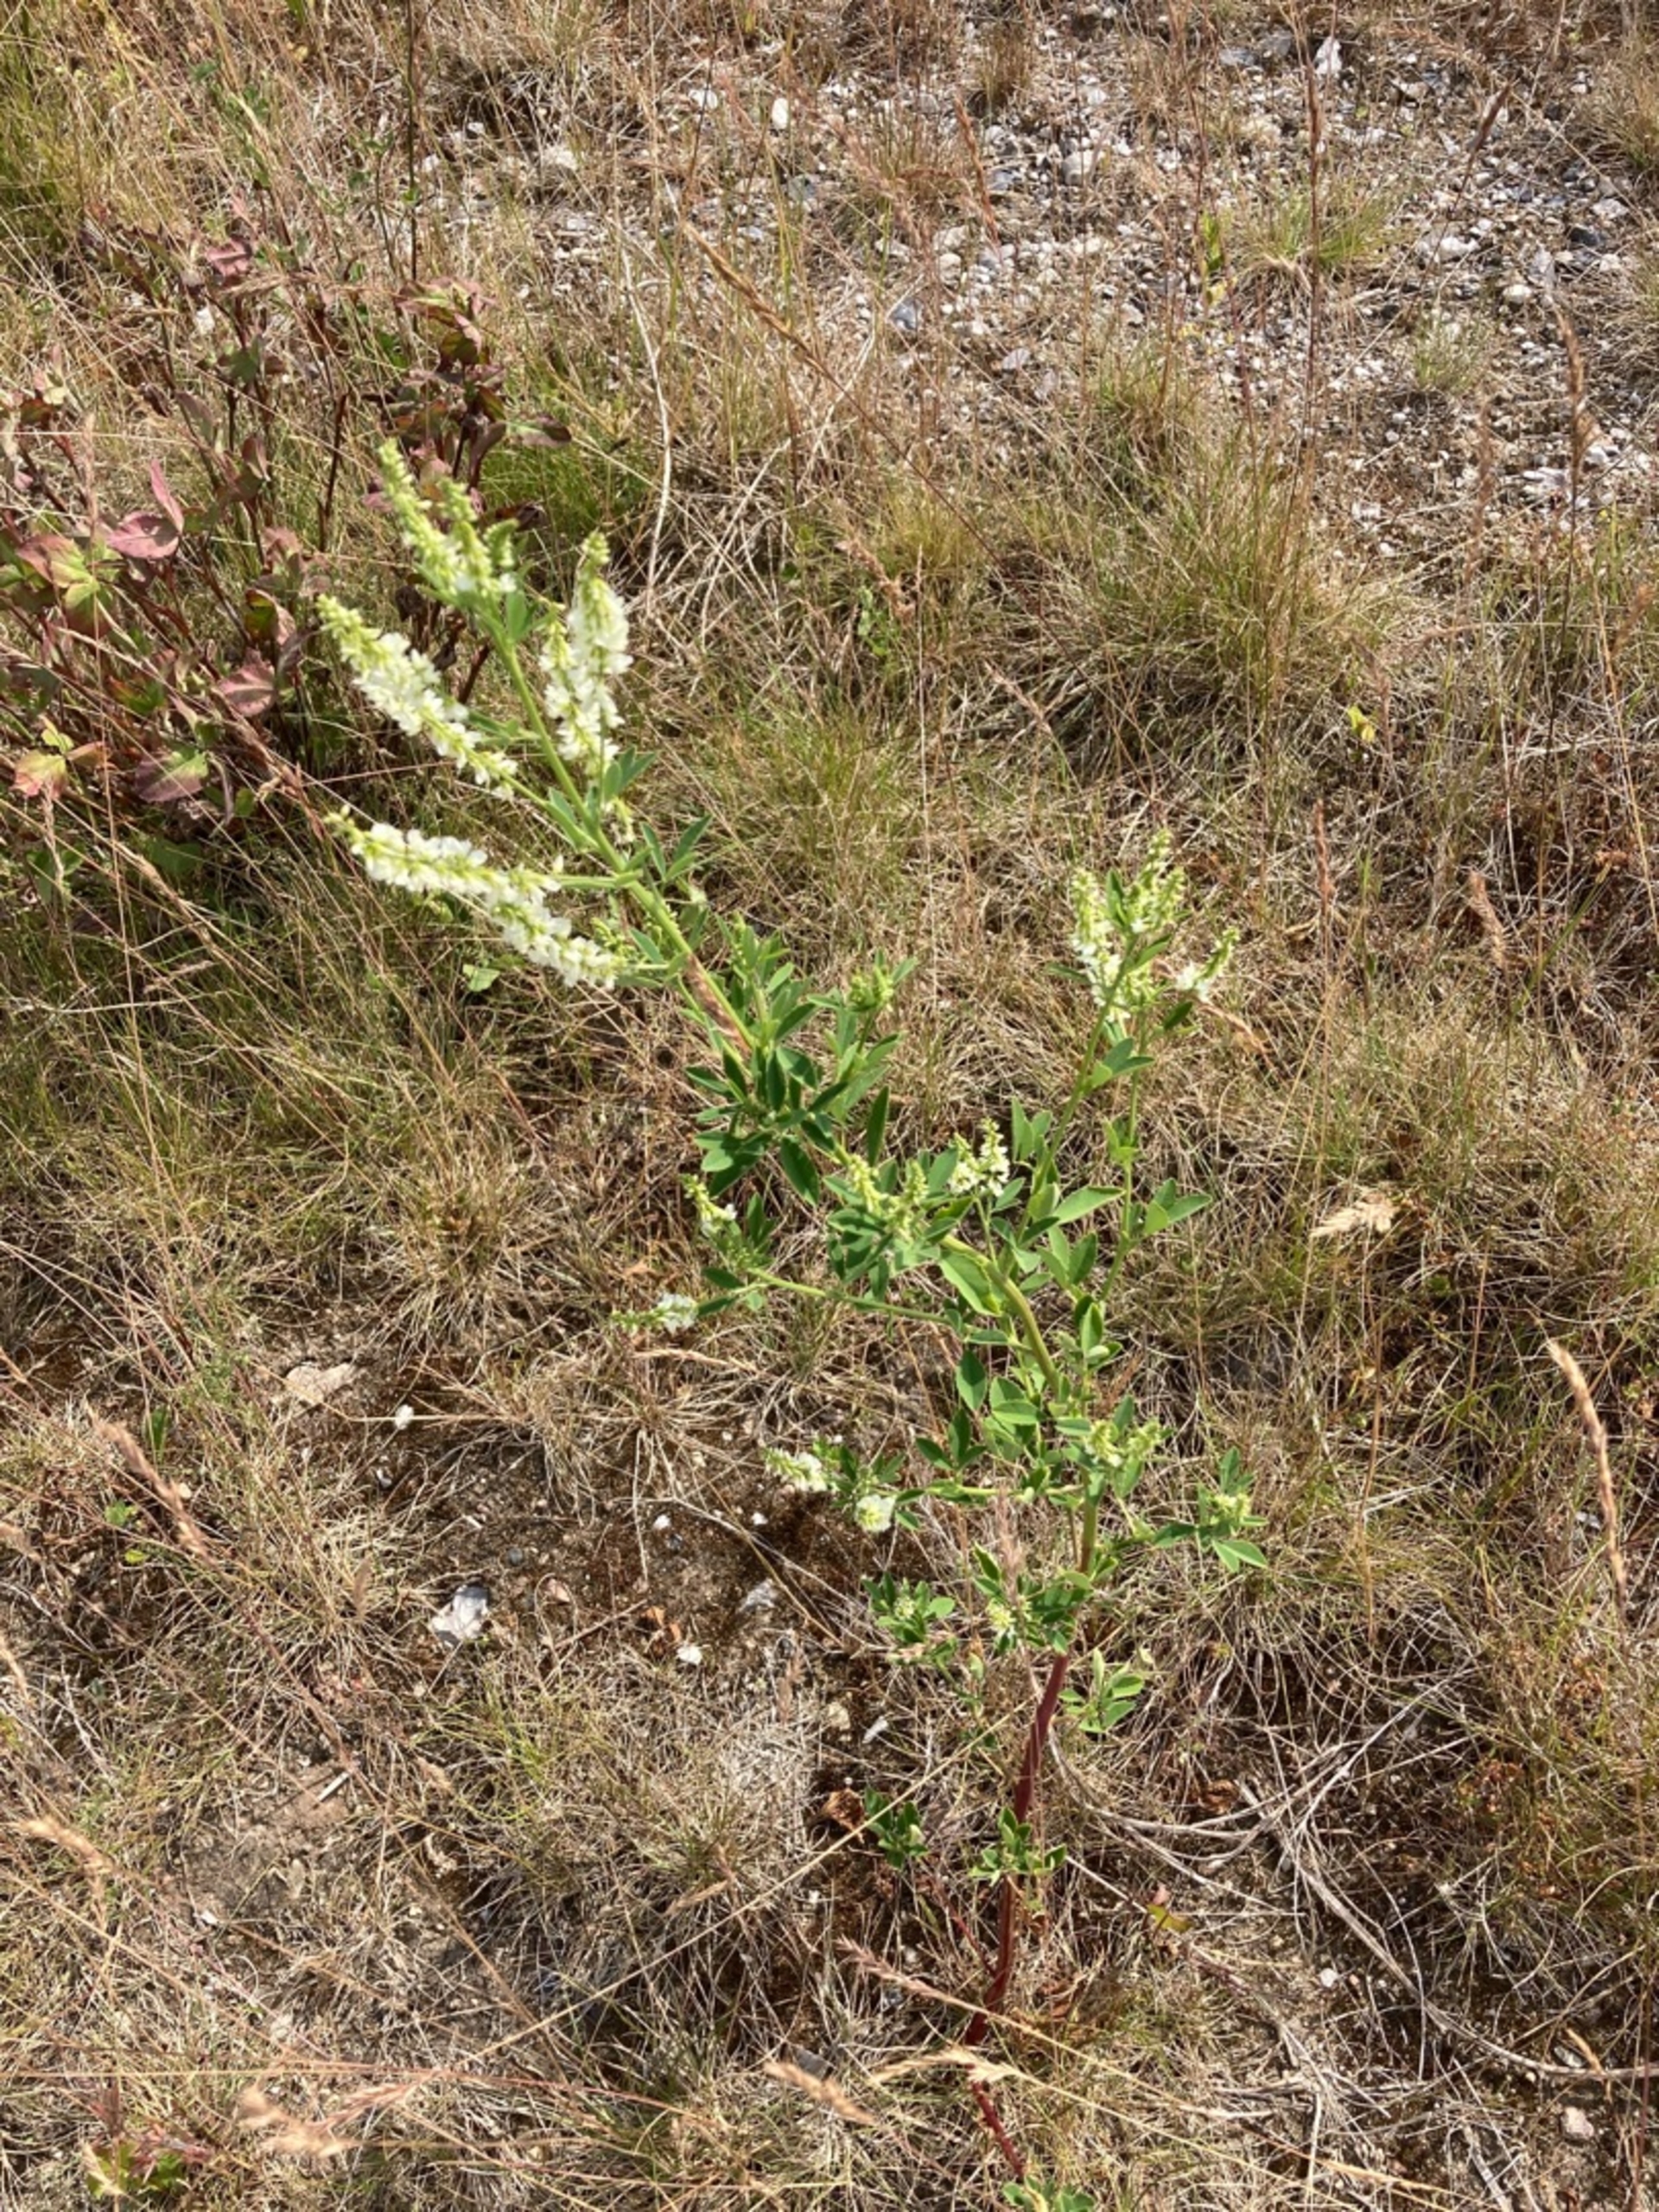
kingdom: Plantae
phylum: Tracheophyta
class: Magnoliopsida
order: Fabales
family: Fabaceae
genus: Melilotus
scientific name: Melilotus albus
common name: Hvid stenkløver
